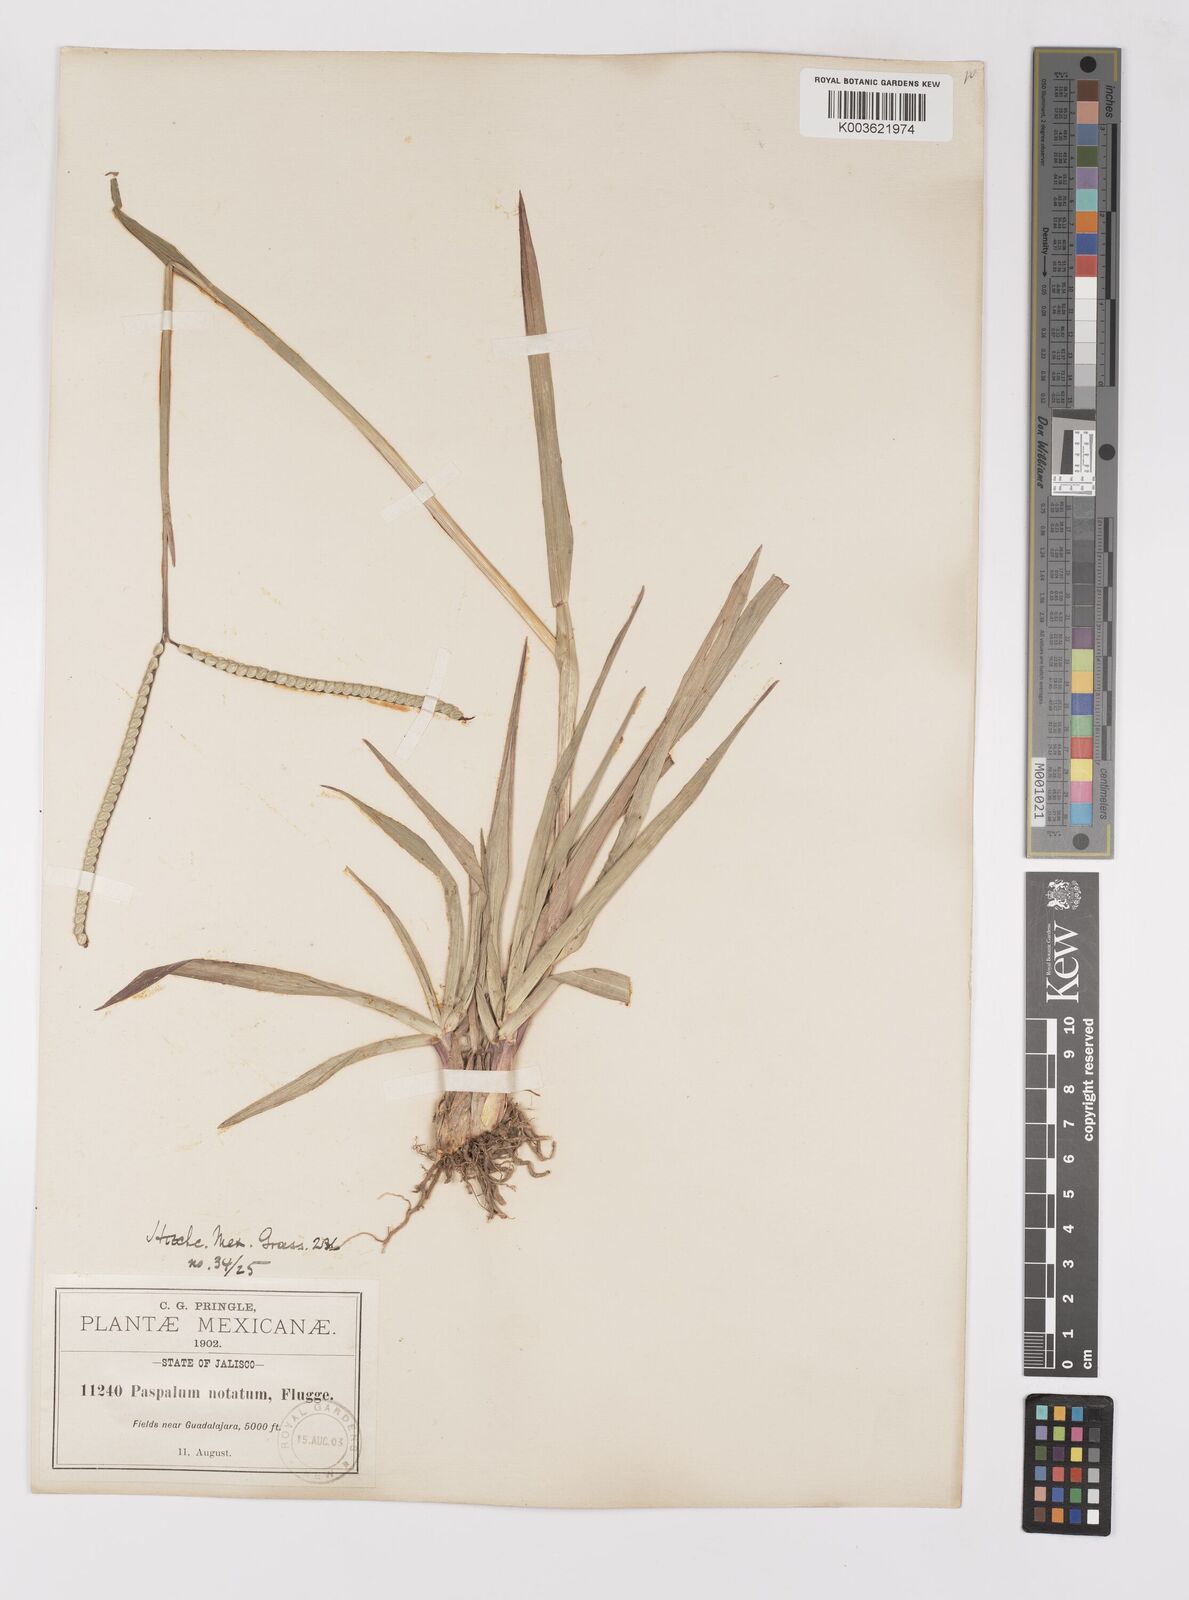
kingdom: Plantae
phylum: Tracheophyta
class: Liliopsida
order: Poales
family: Poaceae
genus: Paspalum
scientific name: Paspalum notatum
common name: Bahiagrass
